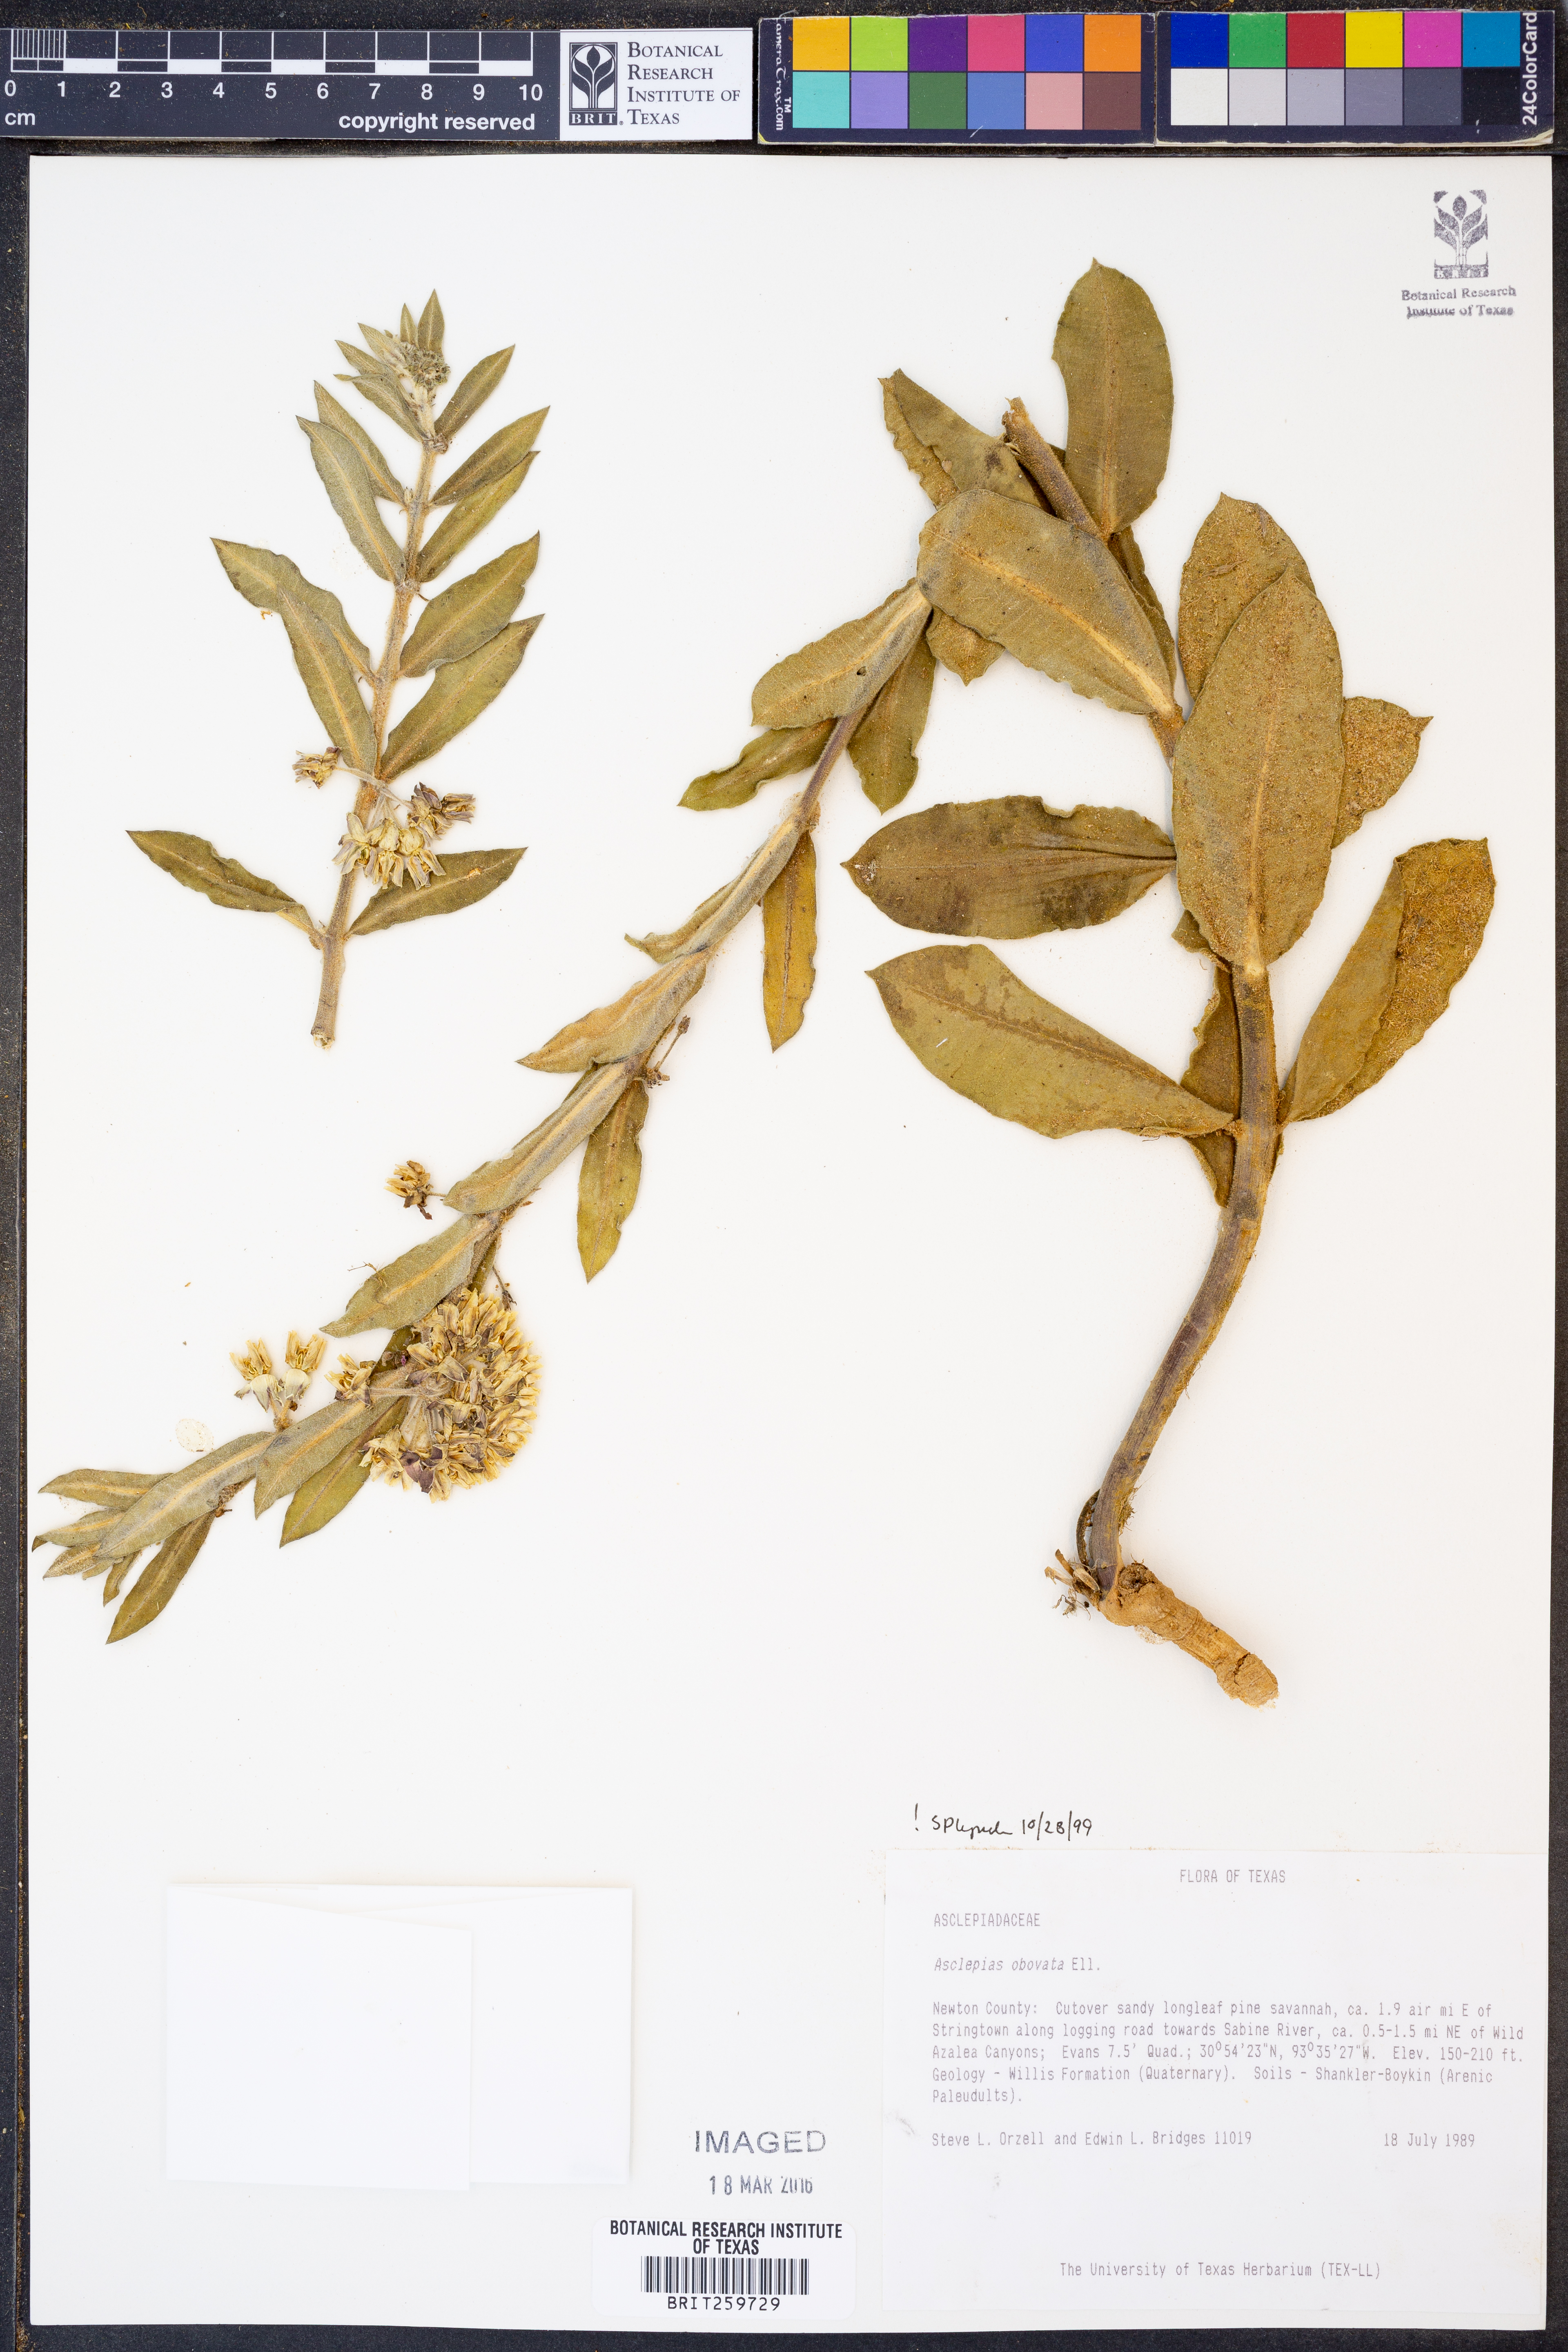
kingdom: Plantae
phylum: Tracheophyta
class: Magnoliopsida
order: Gentianales
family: Apocynaceae
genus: Asclepias
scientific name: Asclepias obovata
